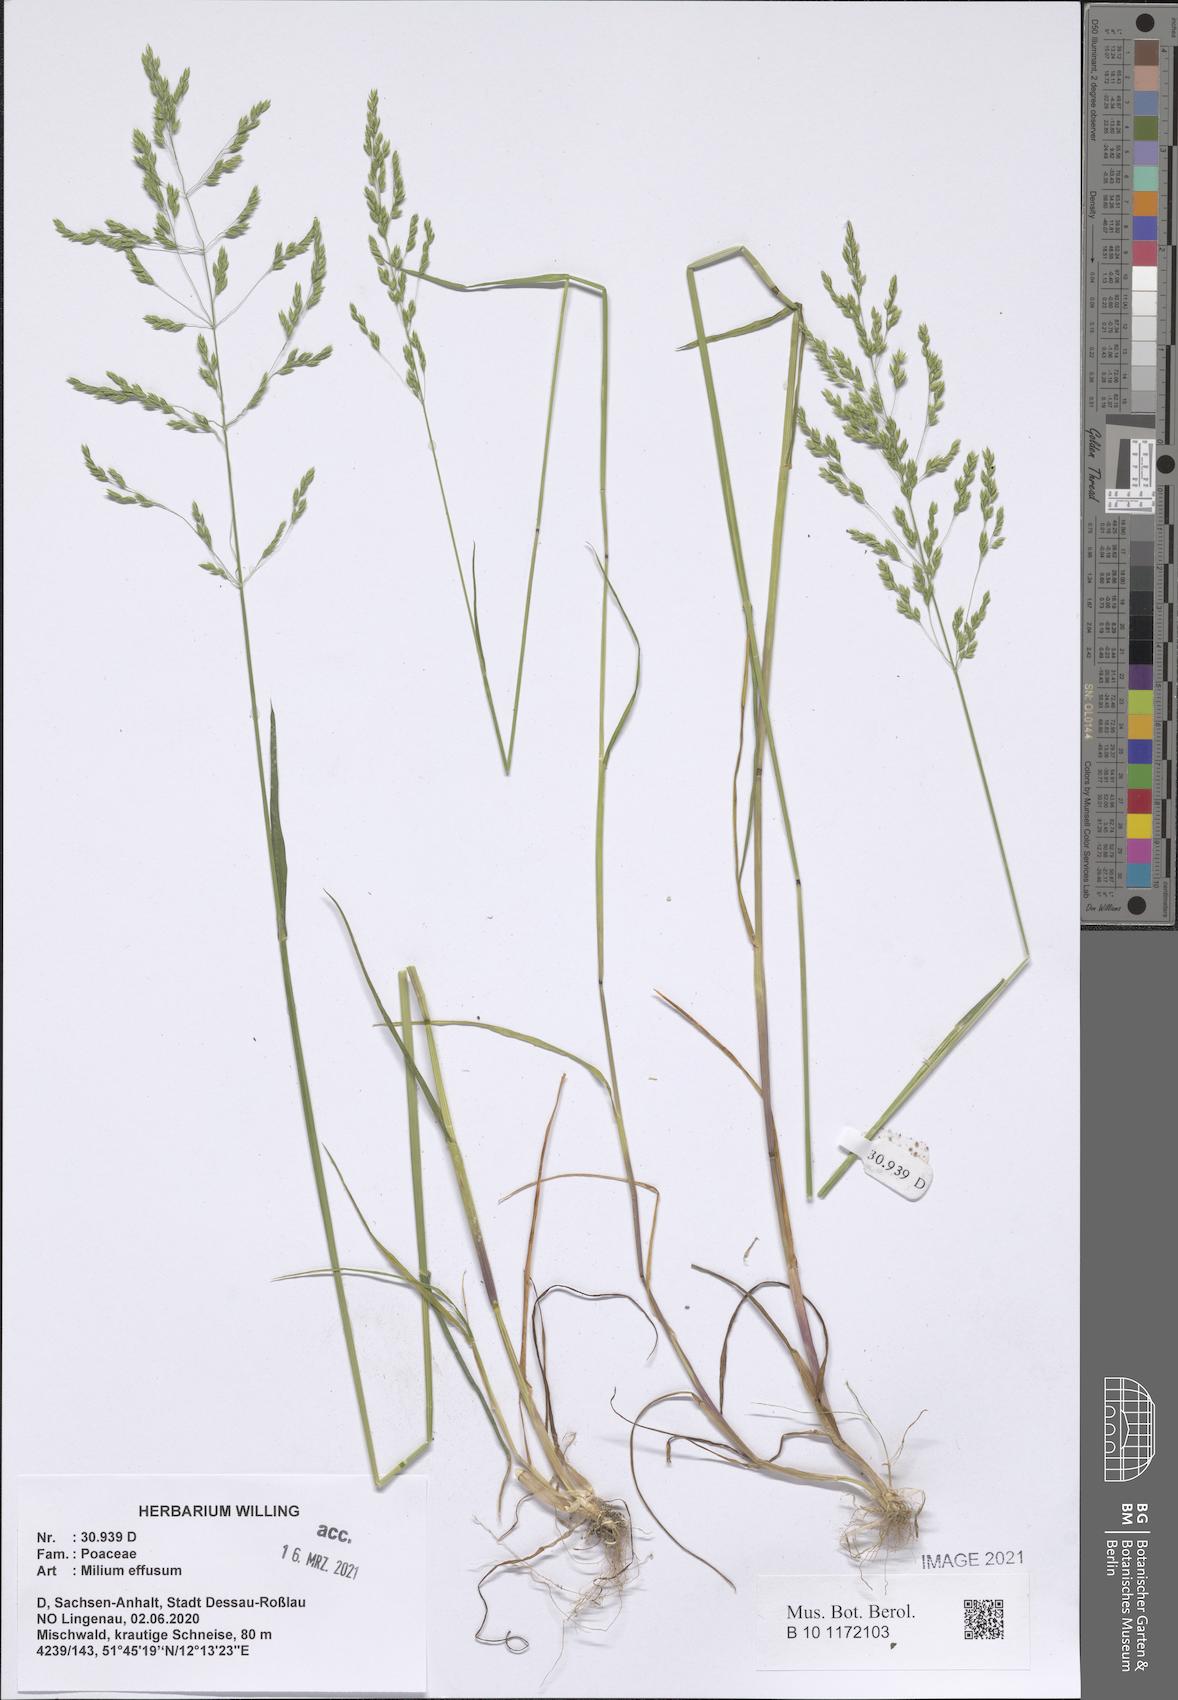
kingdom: Plantae
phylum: Tracheophyta
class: Liliopsida
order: Poales
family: Poaceae
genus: Milium
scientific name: Milium effusum
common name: Wood millet
